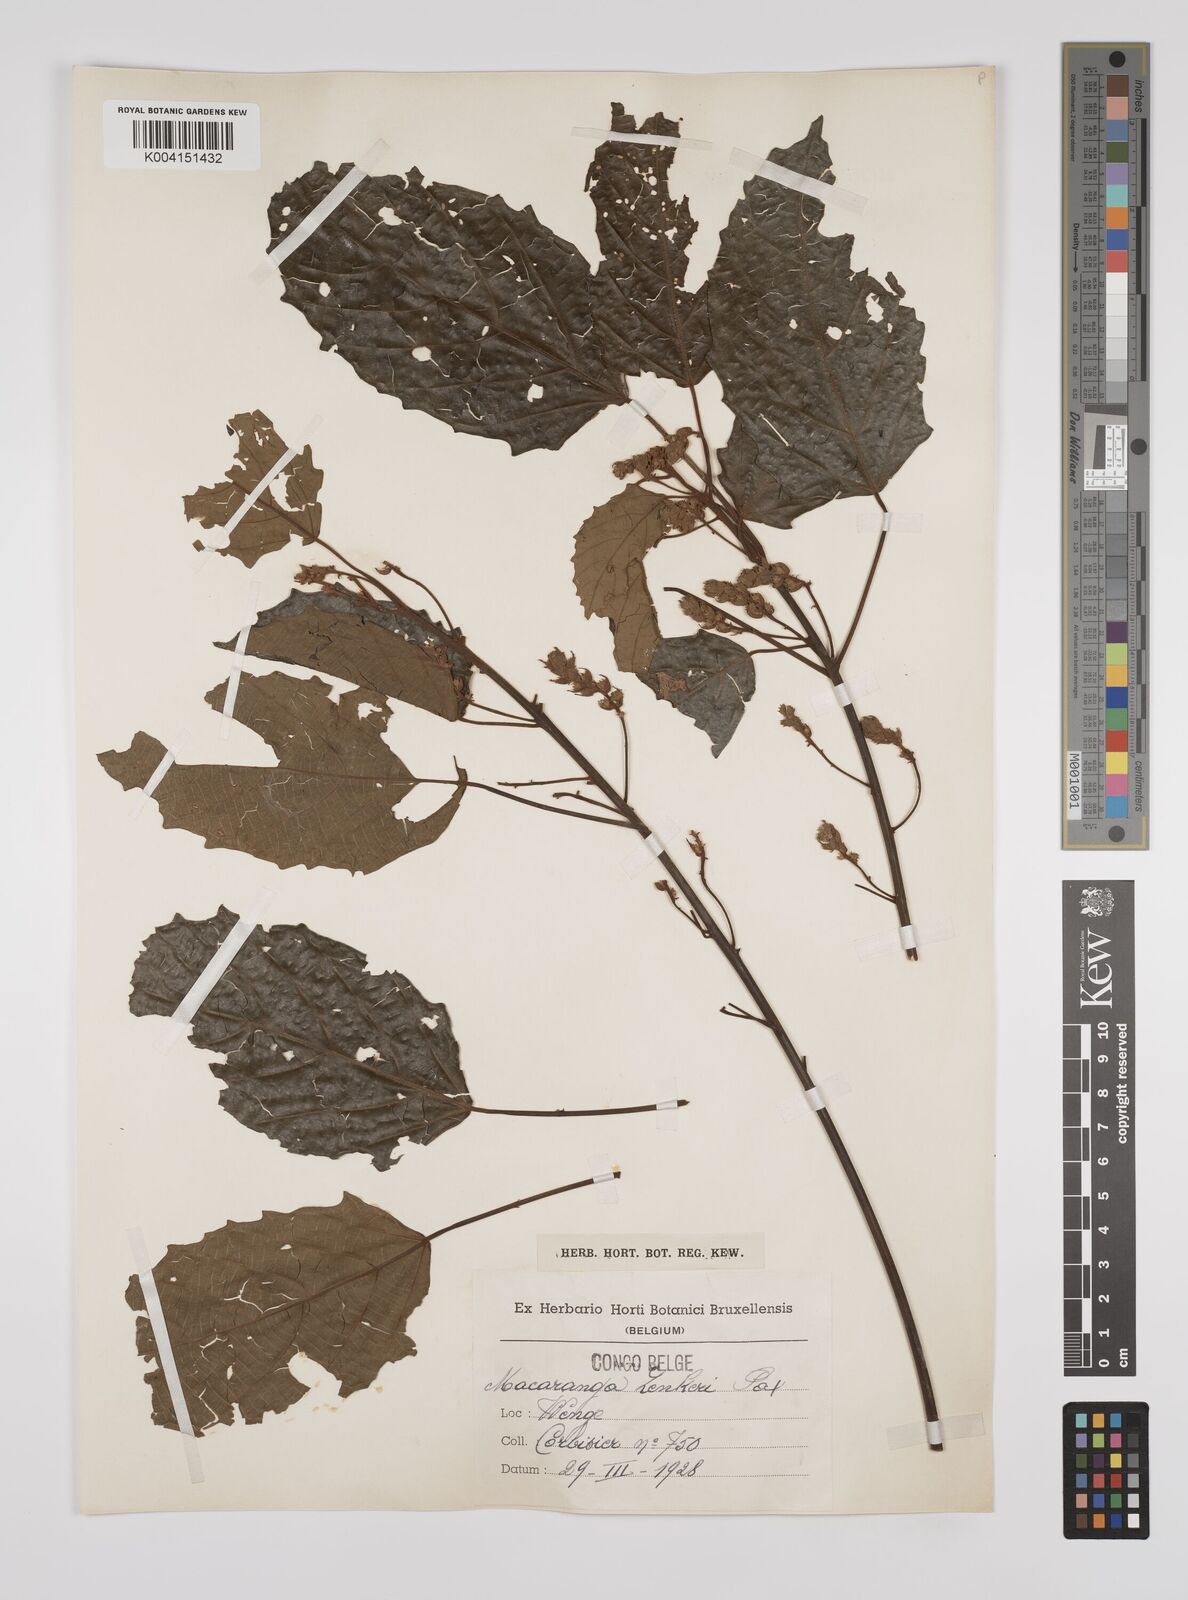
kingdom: Plantae
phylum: Tracheophyta
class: Magnoliopsida
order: Malpighiales
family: Euphorbiaceae
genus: Macaranga
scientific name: Macaranga monandra
